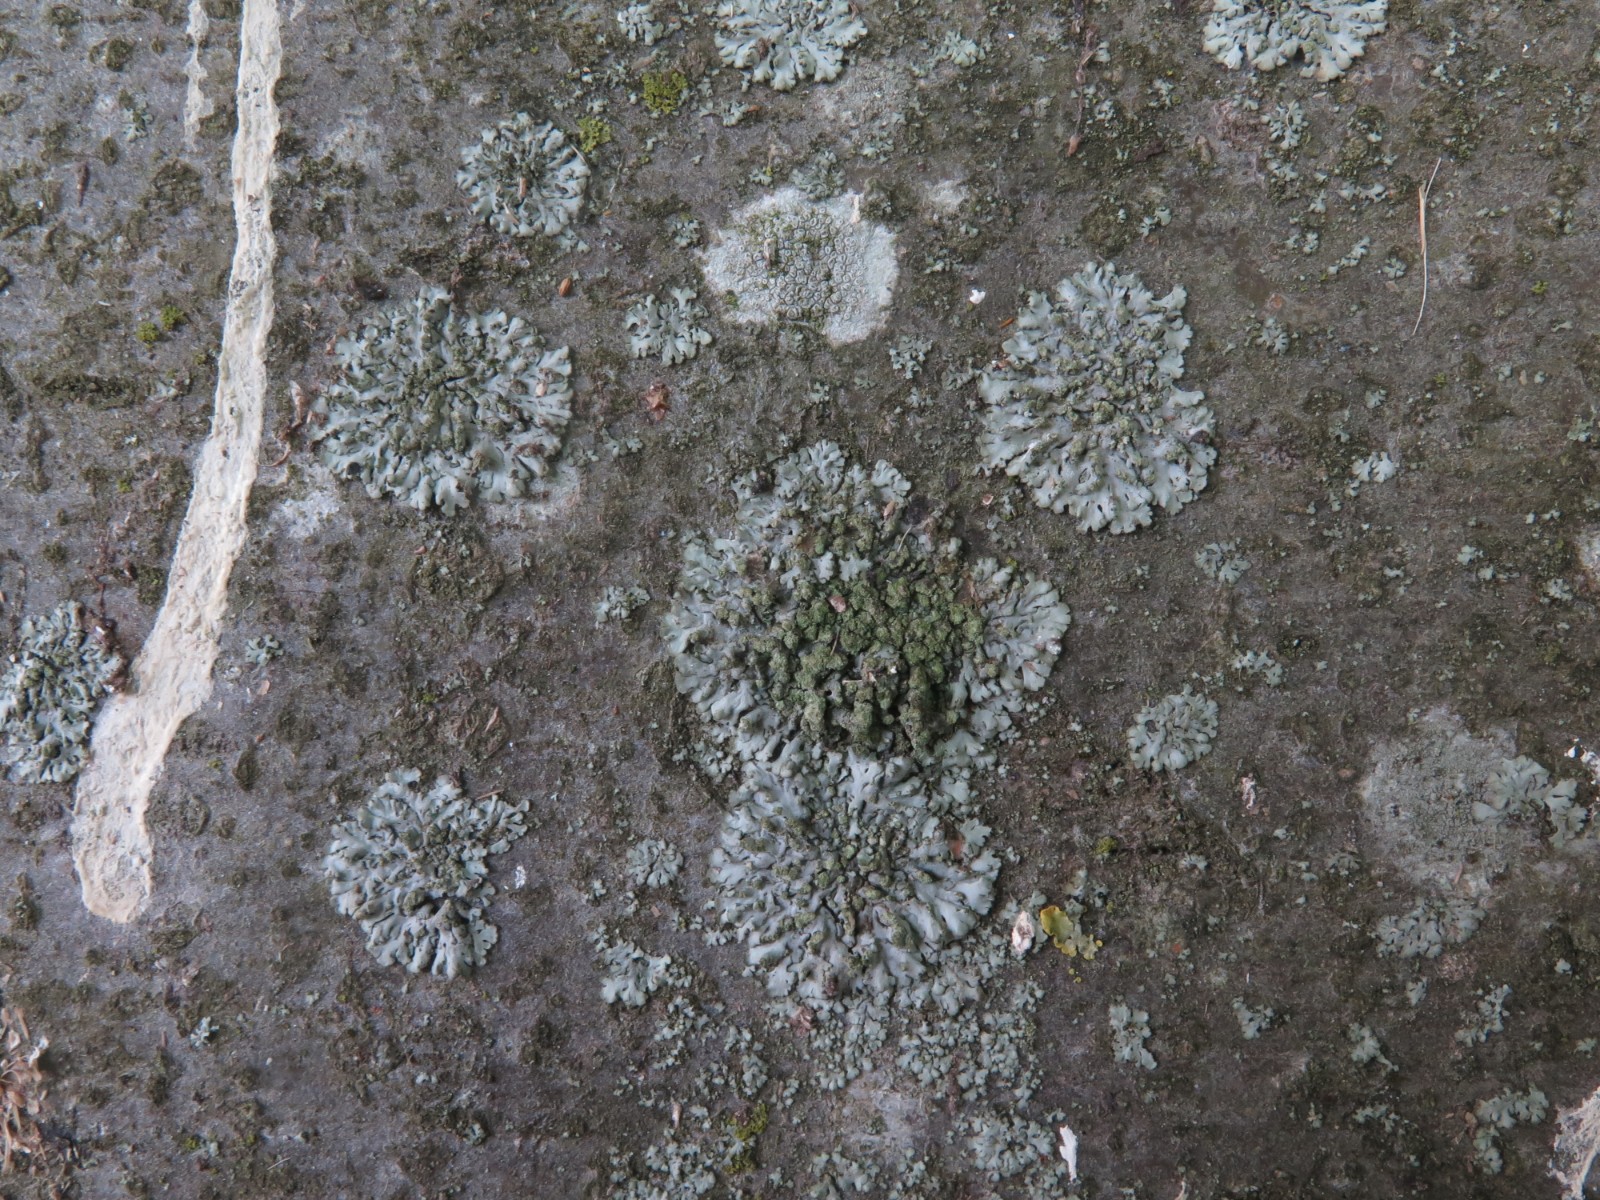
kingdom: Fungi
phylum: Ascomycota
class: Lecanoromycetes
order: Caliciales
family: Physciaceae
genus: Phaeophyscia
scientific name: Phaeophyscia orbicularis
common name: grågrøn rosetlav
